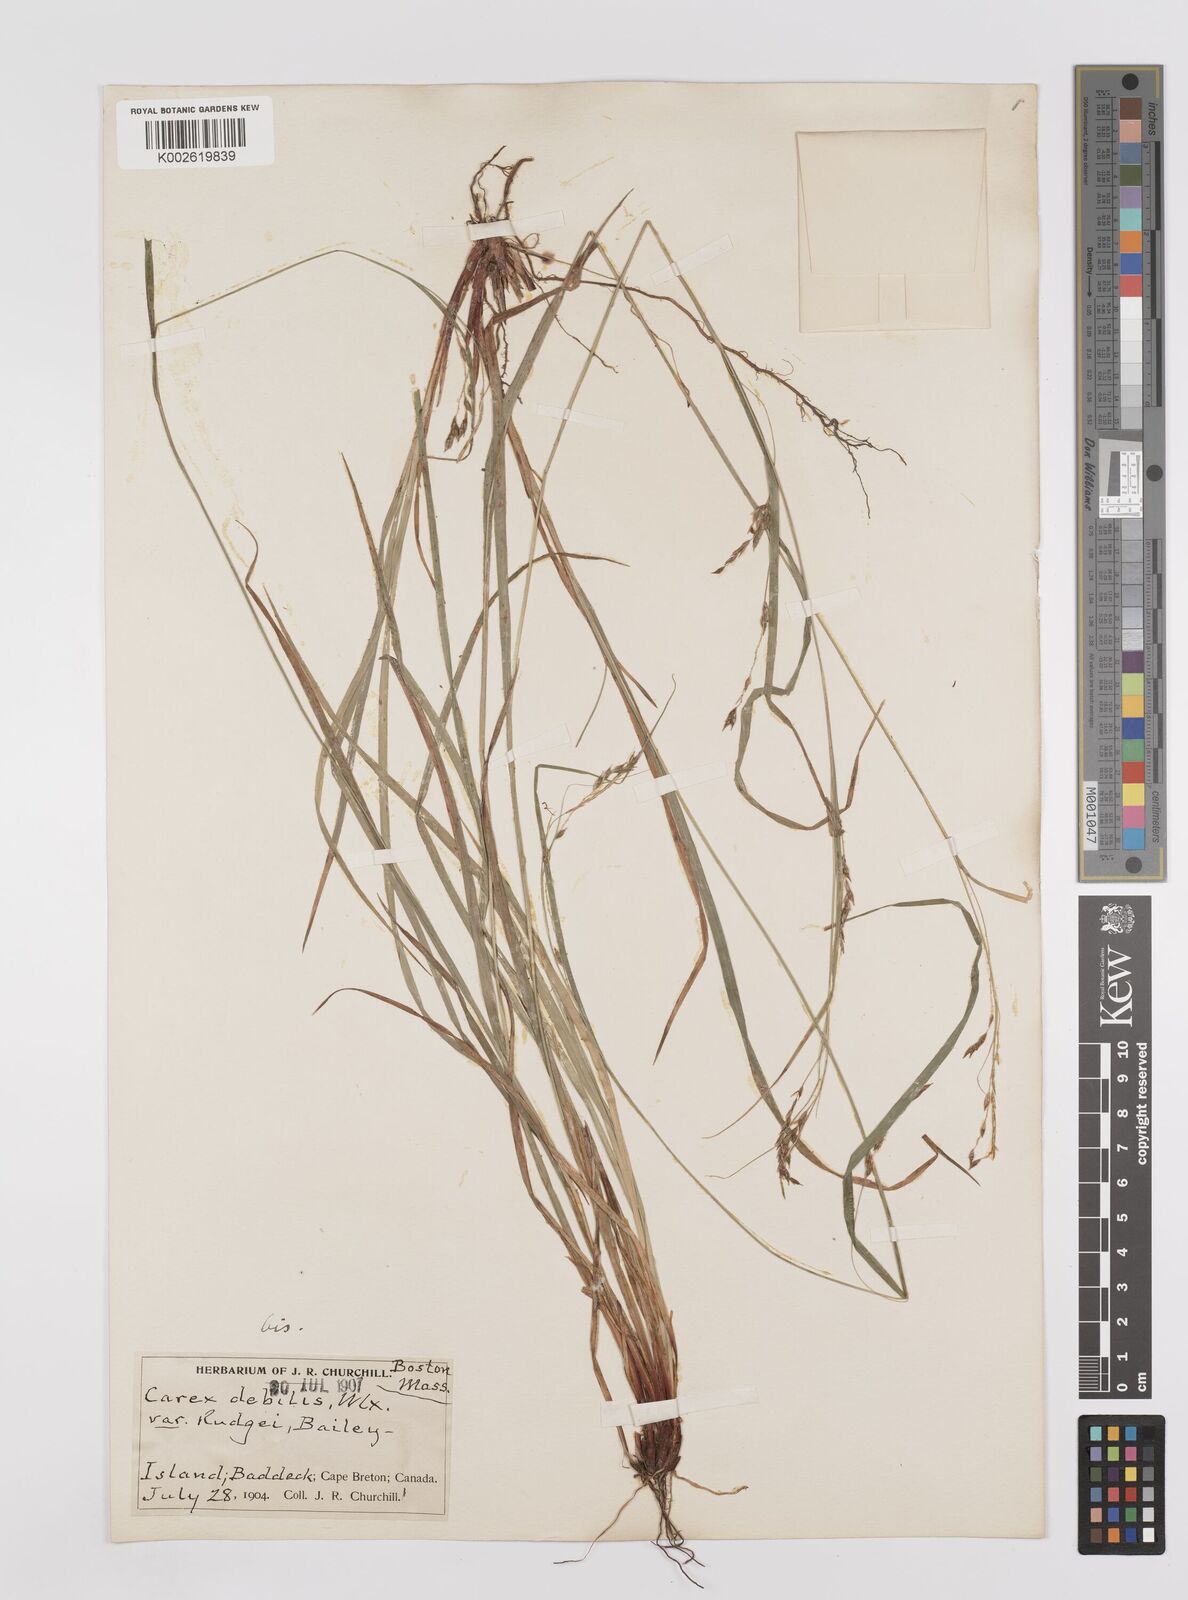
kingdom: Plantae
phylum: Tracheophyta
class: Liliopsida
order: Poales
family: Cyperaceae
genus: Carex
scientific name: Carex debilis
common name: White-edge sedge
